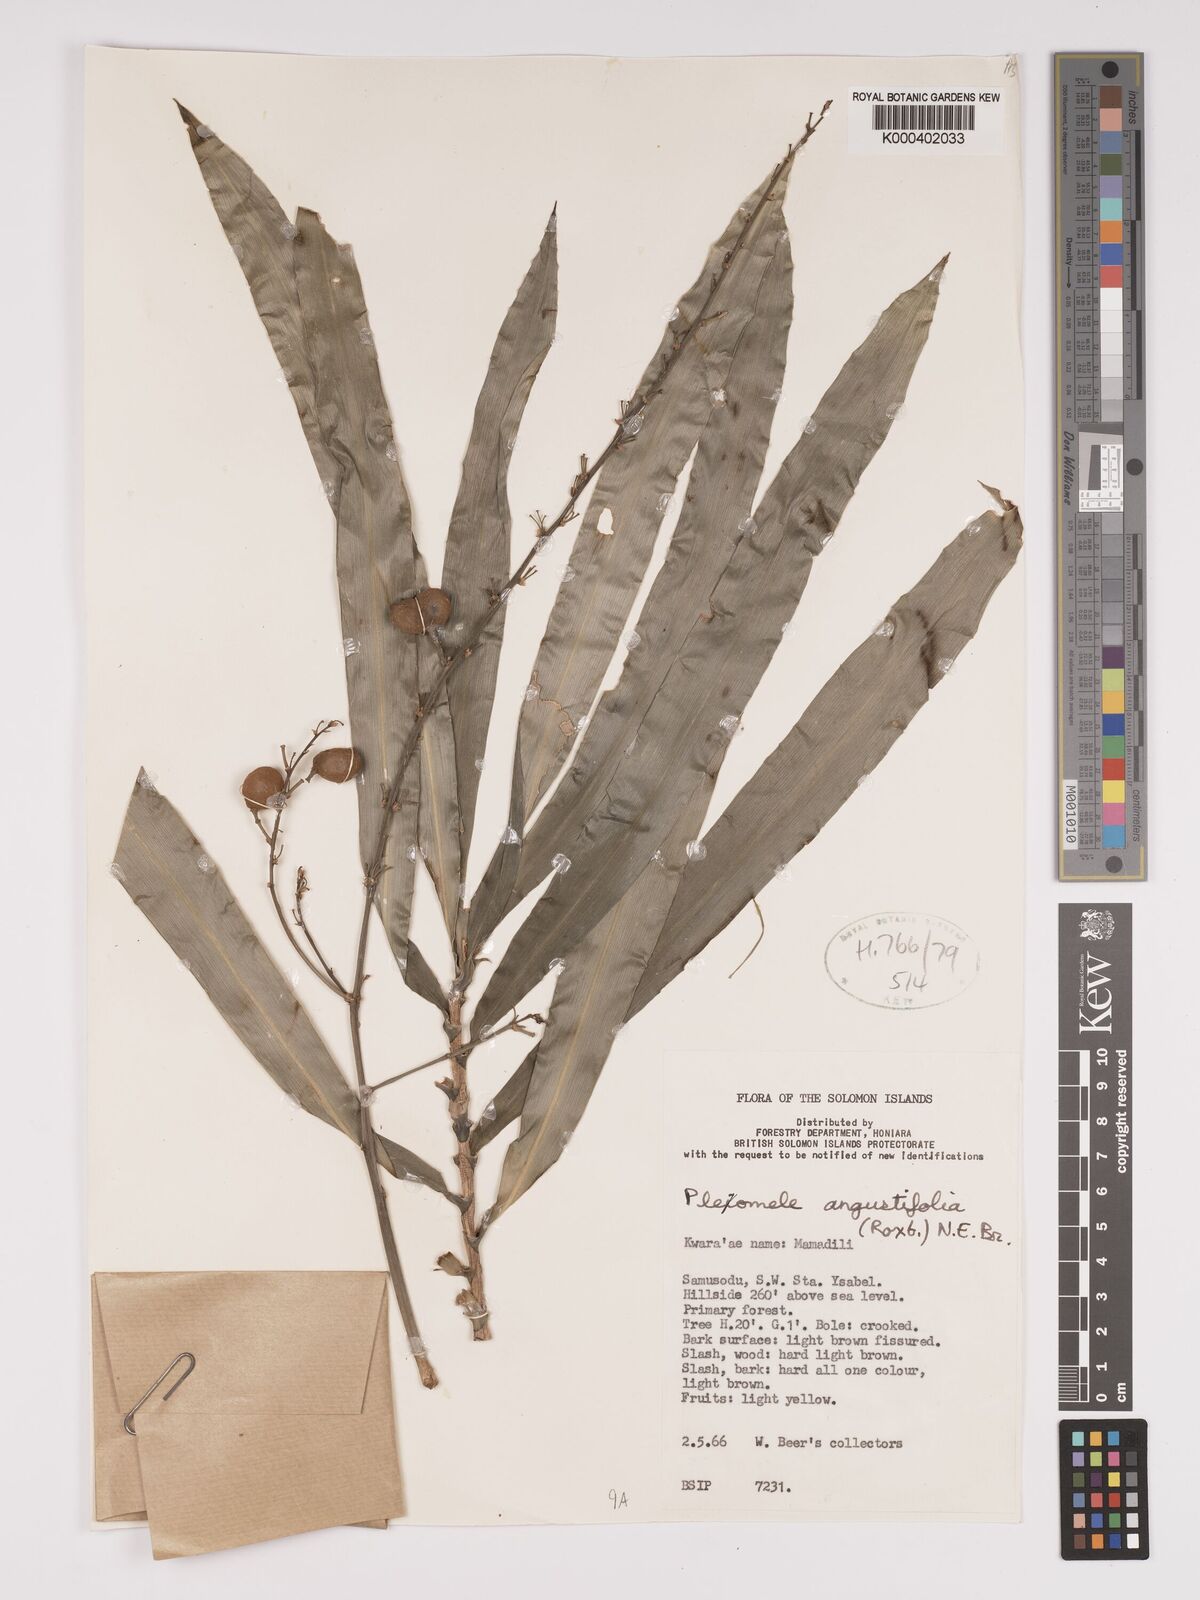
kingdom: Plantae
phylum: Tracheophyta
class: Liliopsida
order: Asparagales
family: Asparagaceae
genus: Dracaena
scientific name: Dracaena angustifolia
